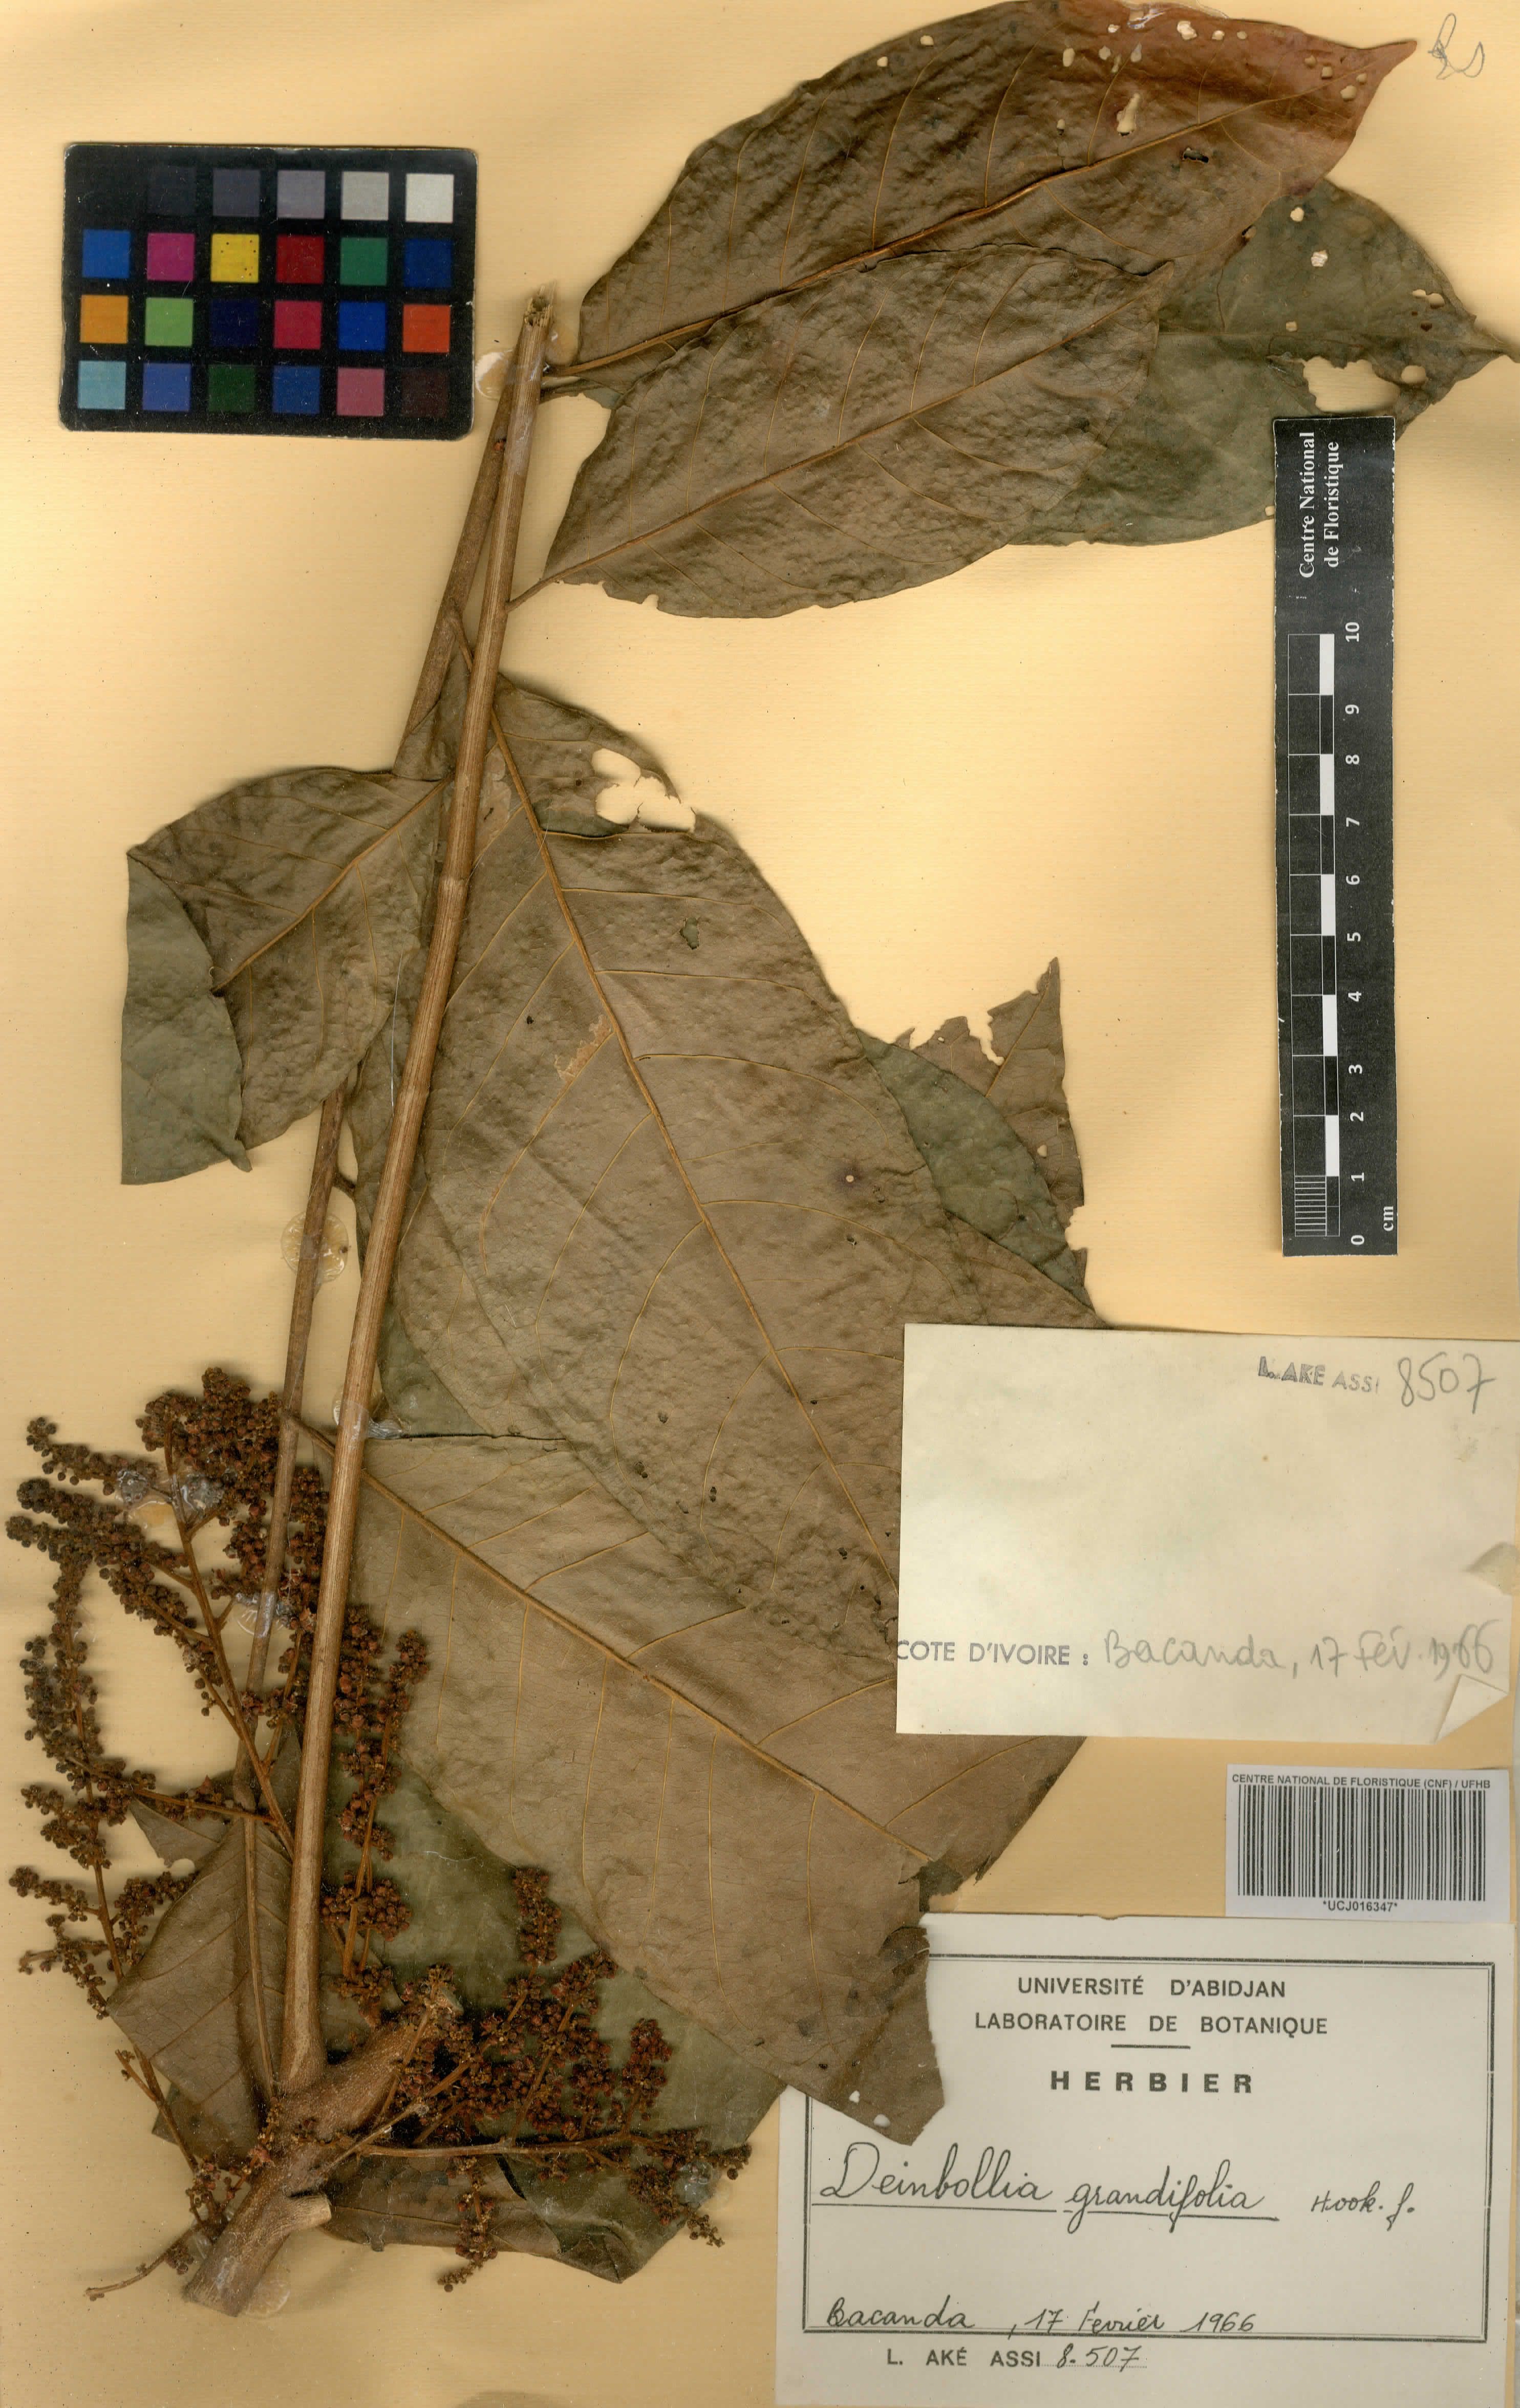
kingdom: Plantae
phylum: Tracheophyta
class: Magnoliopsida
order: Sapindales
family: Sapindaceae
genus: Deinbollia
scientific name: Deinbollia grandifolia
